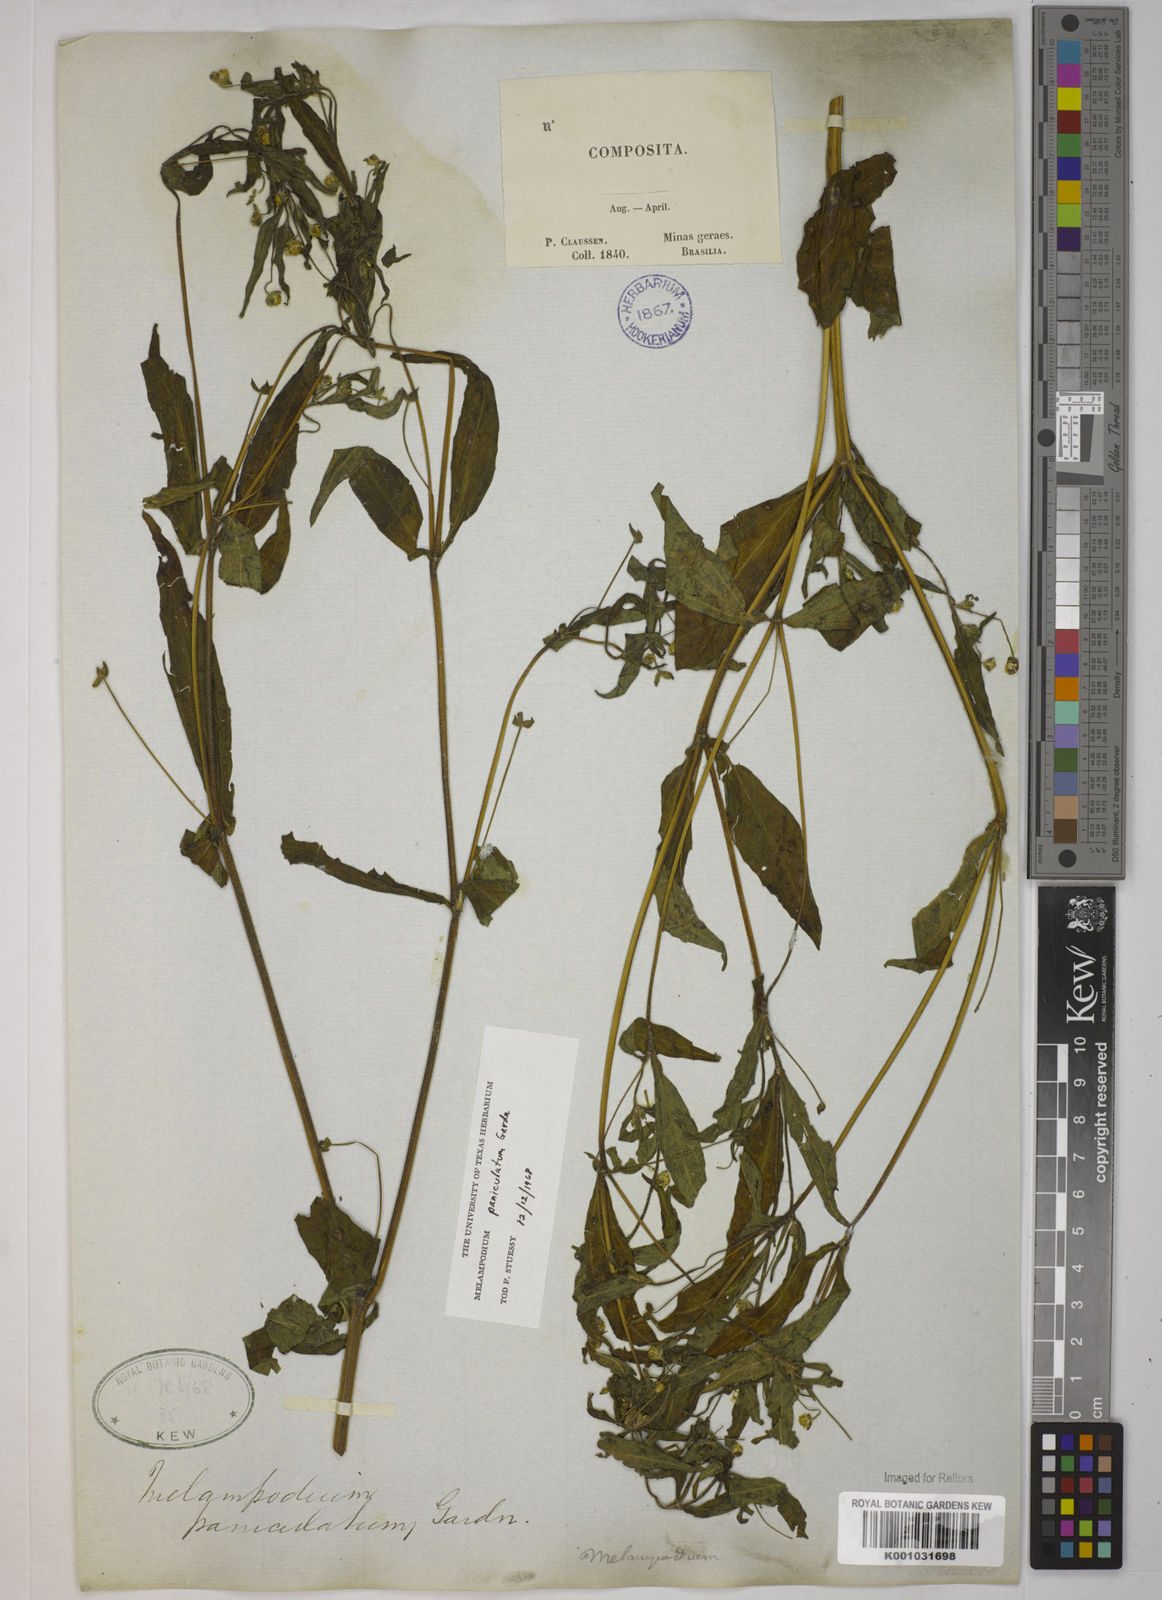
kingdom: Plantae
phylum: Tracheophyta
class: Magnoliopsida
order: Asterales
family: Asteraceae
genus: Melampodium
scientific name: Melampodium paniculatum
